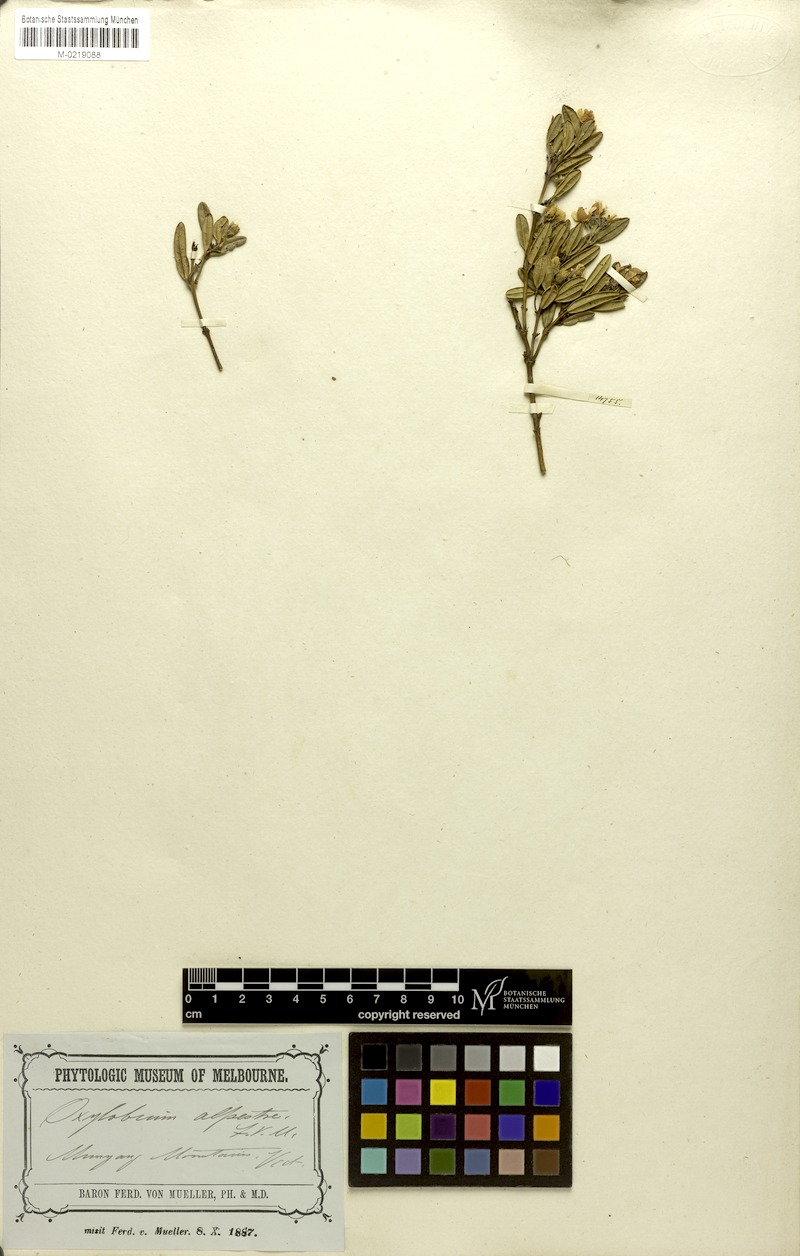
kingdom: Plantae
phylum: Tracheophyta
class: Magnoliopsida
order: Fabales
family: Fabaceae
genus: Podolobium
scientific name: Podolobium alpestre
